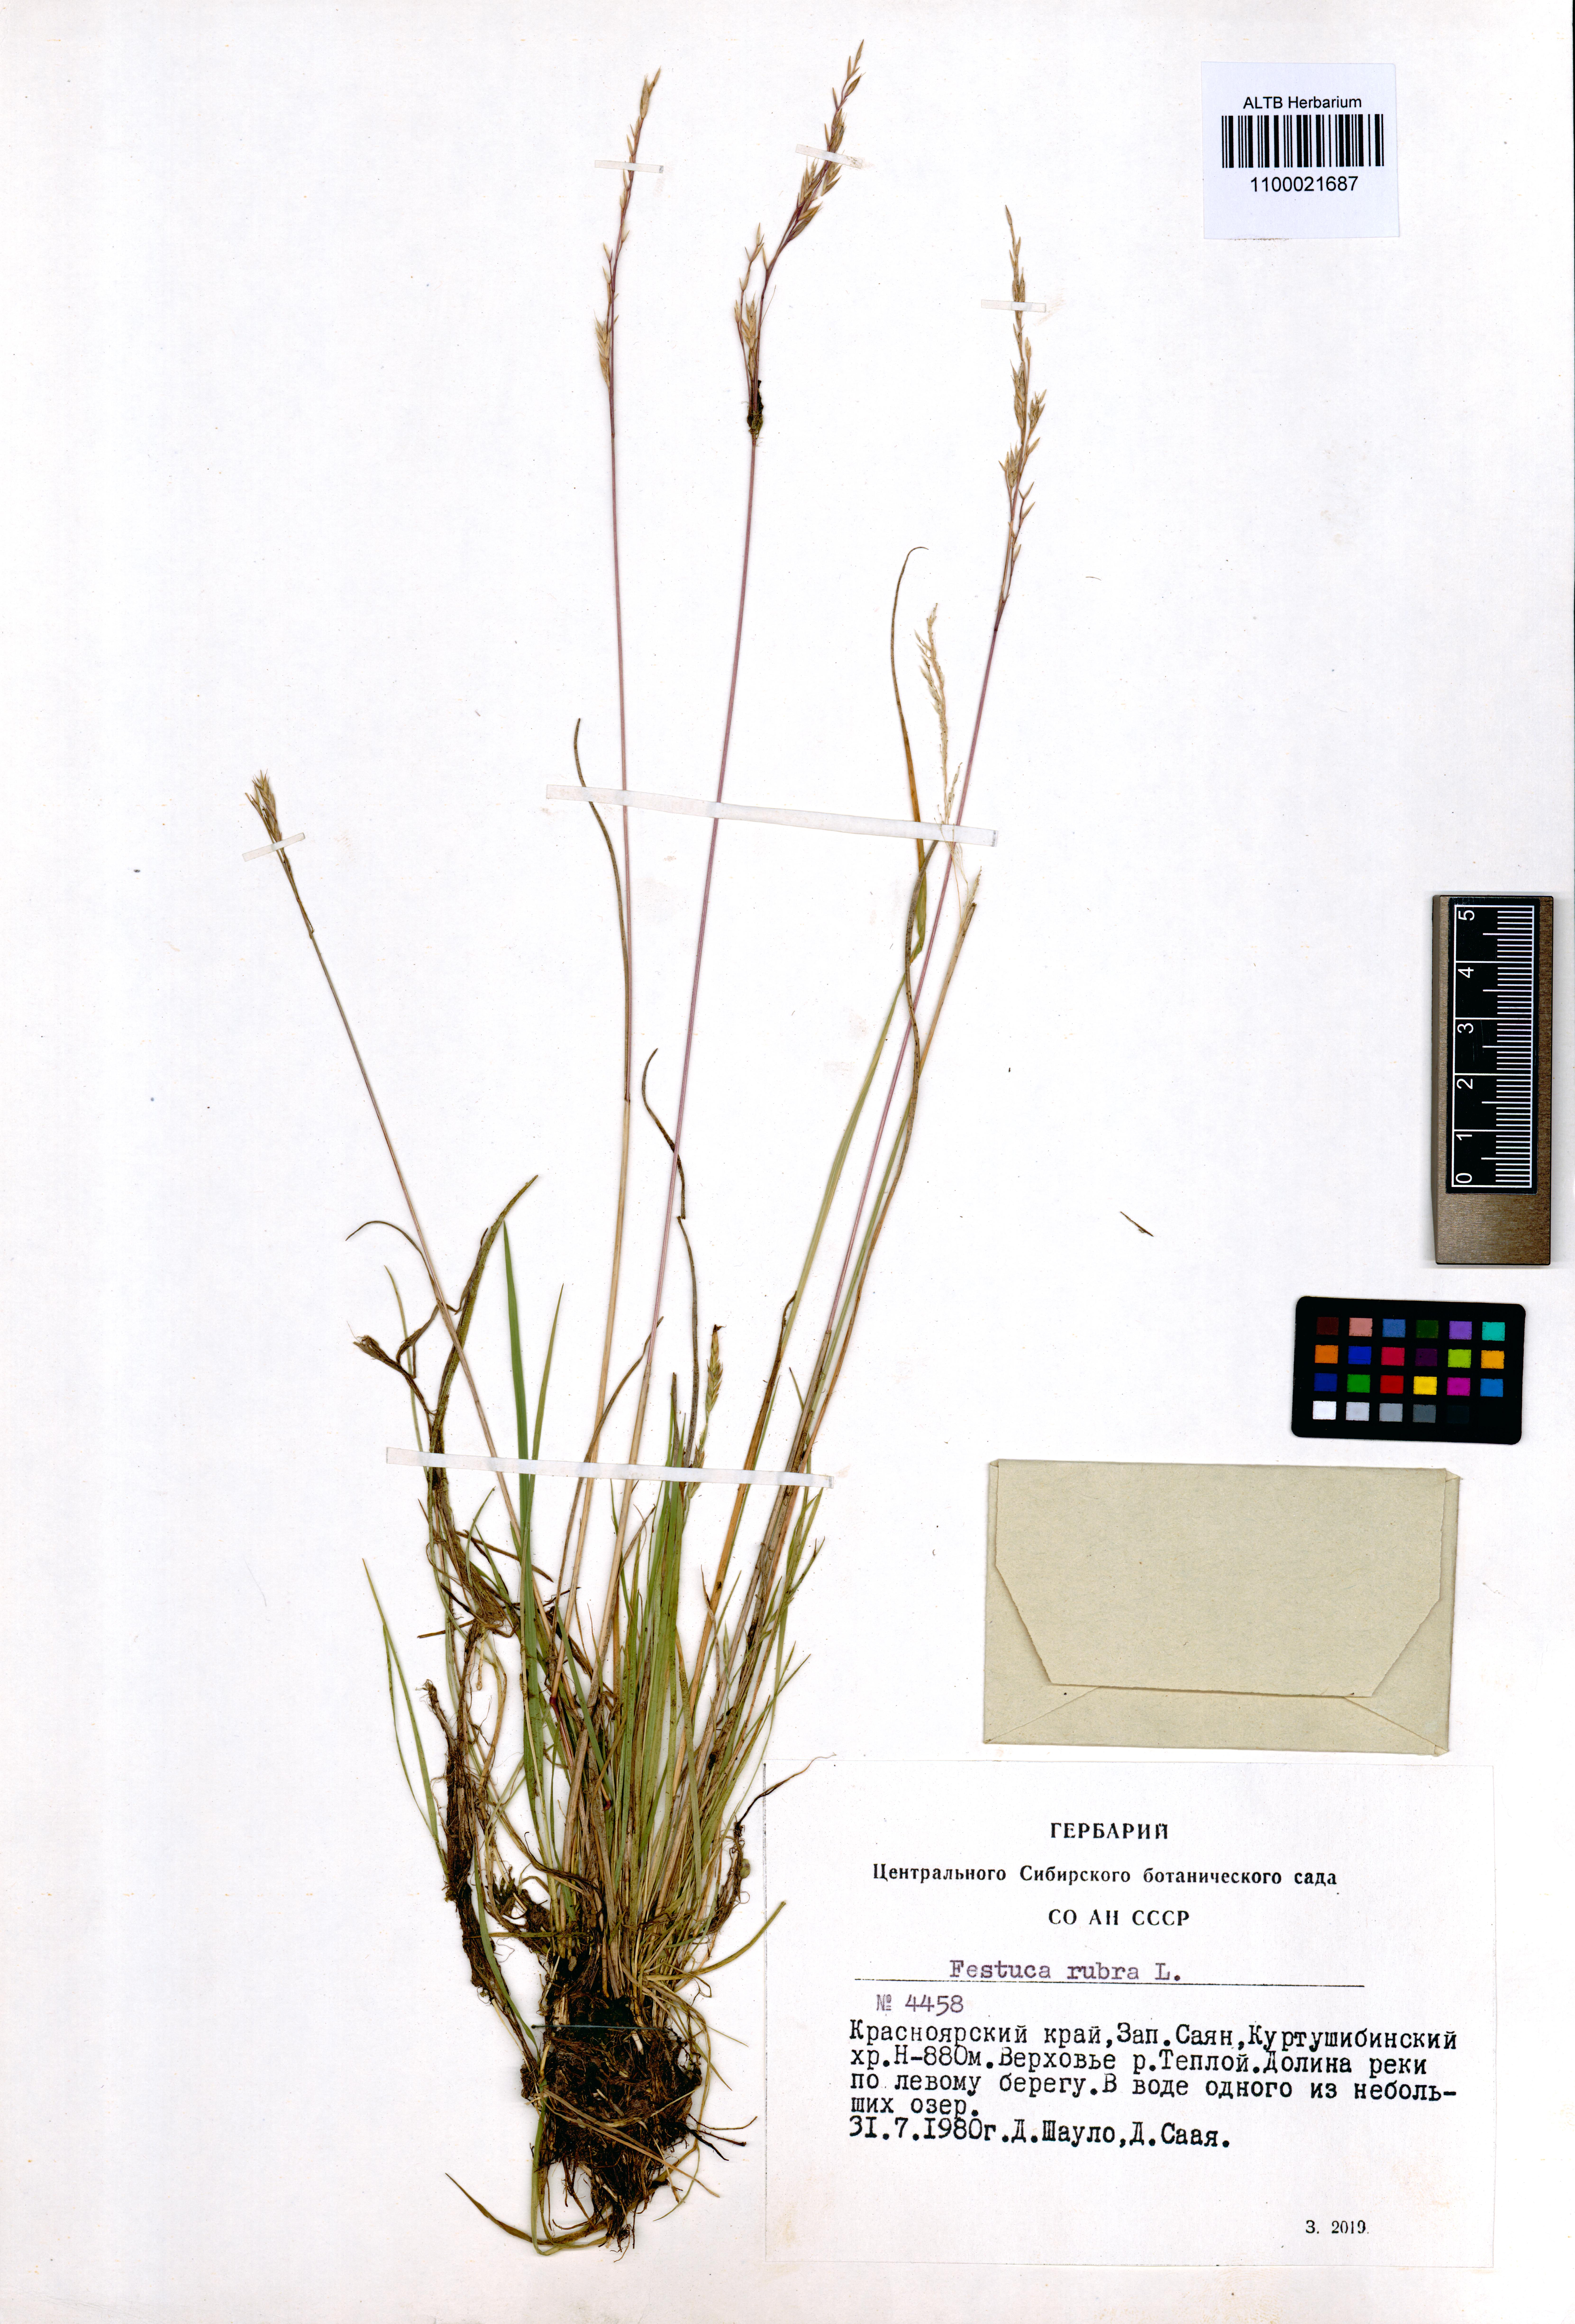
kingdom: Plantae
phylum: Tracheophyta
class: Liliopsida
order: Poales
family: Poaceae
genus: Festuca
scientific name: Festuca rubra
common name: Red fescue
